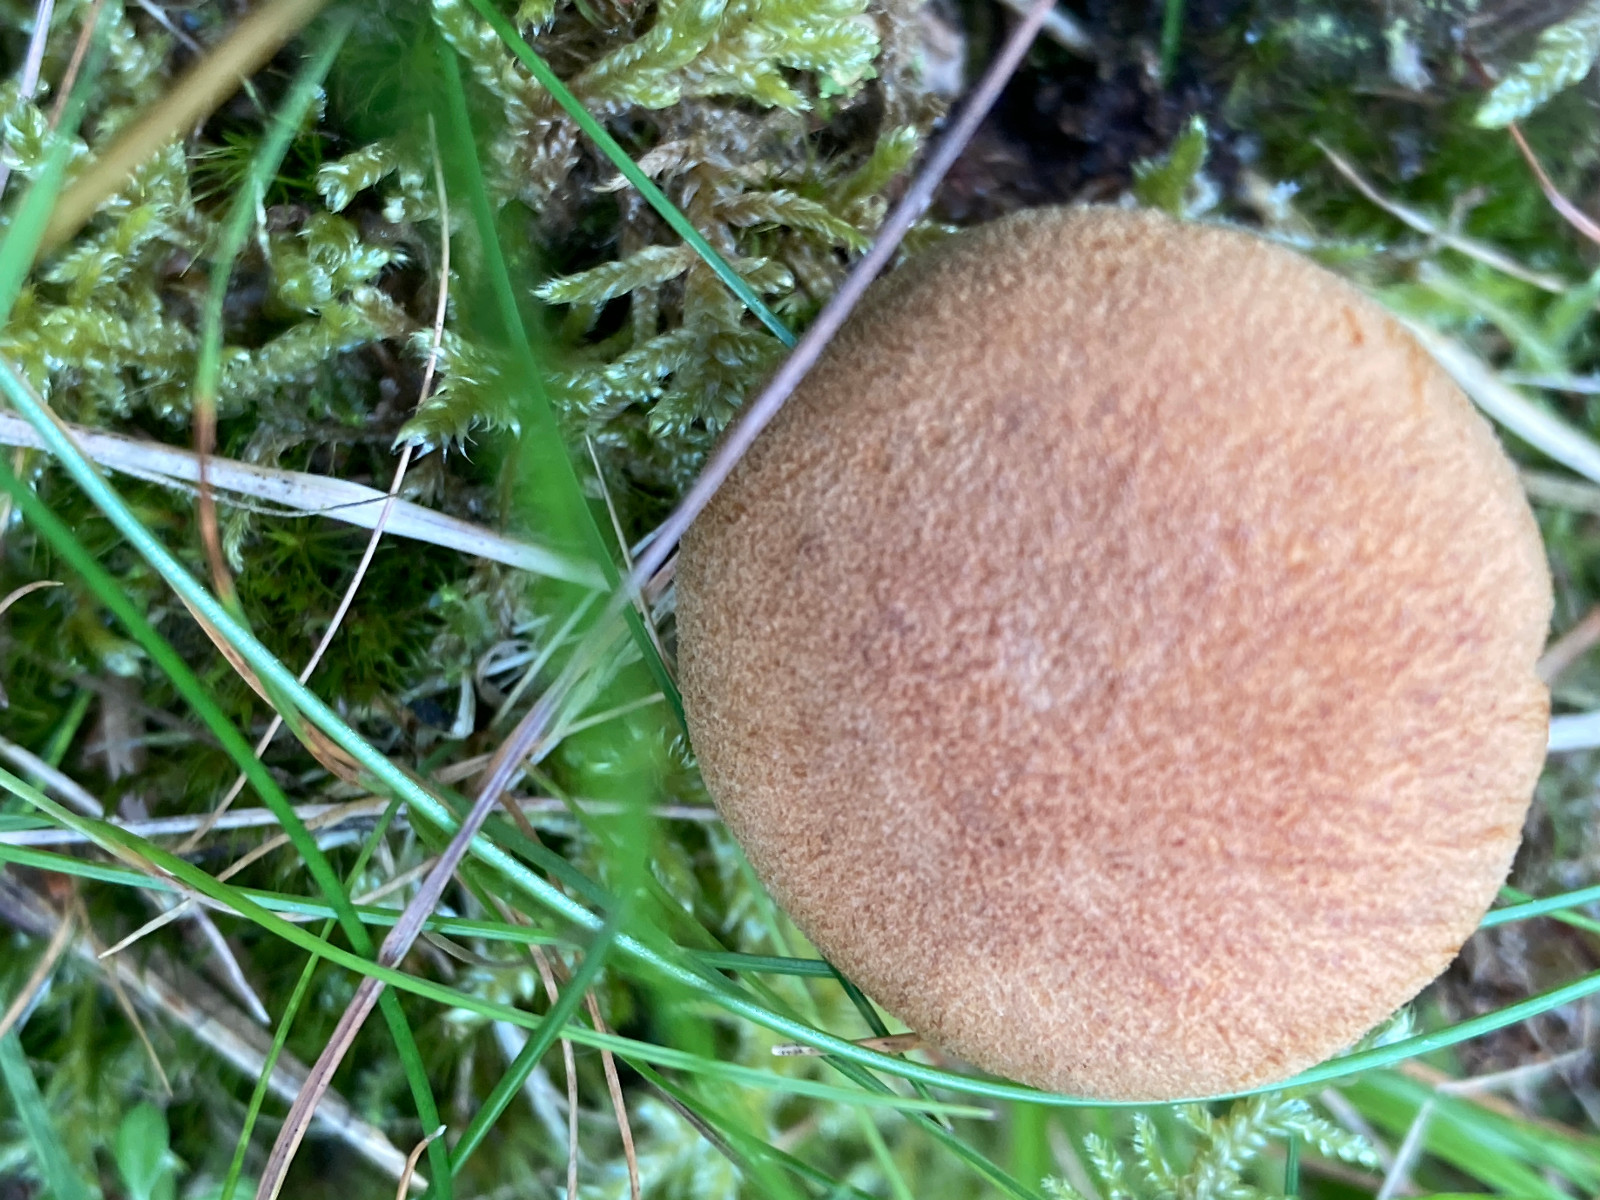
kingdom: Fungi
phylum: Basidiomycota
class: Agaricomycetes
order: Agaricales
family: Hymenogastraceae
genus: Gymnopilus
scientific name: Gymnopilus decipiens
